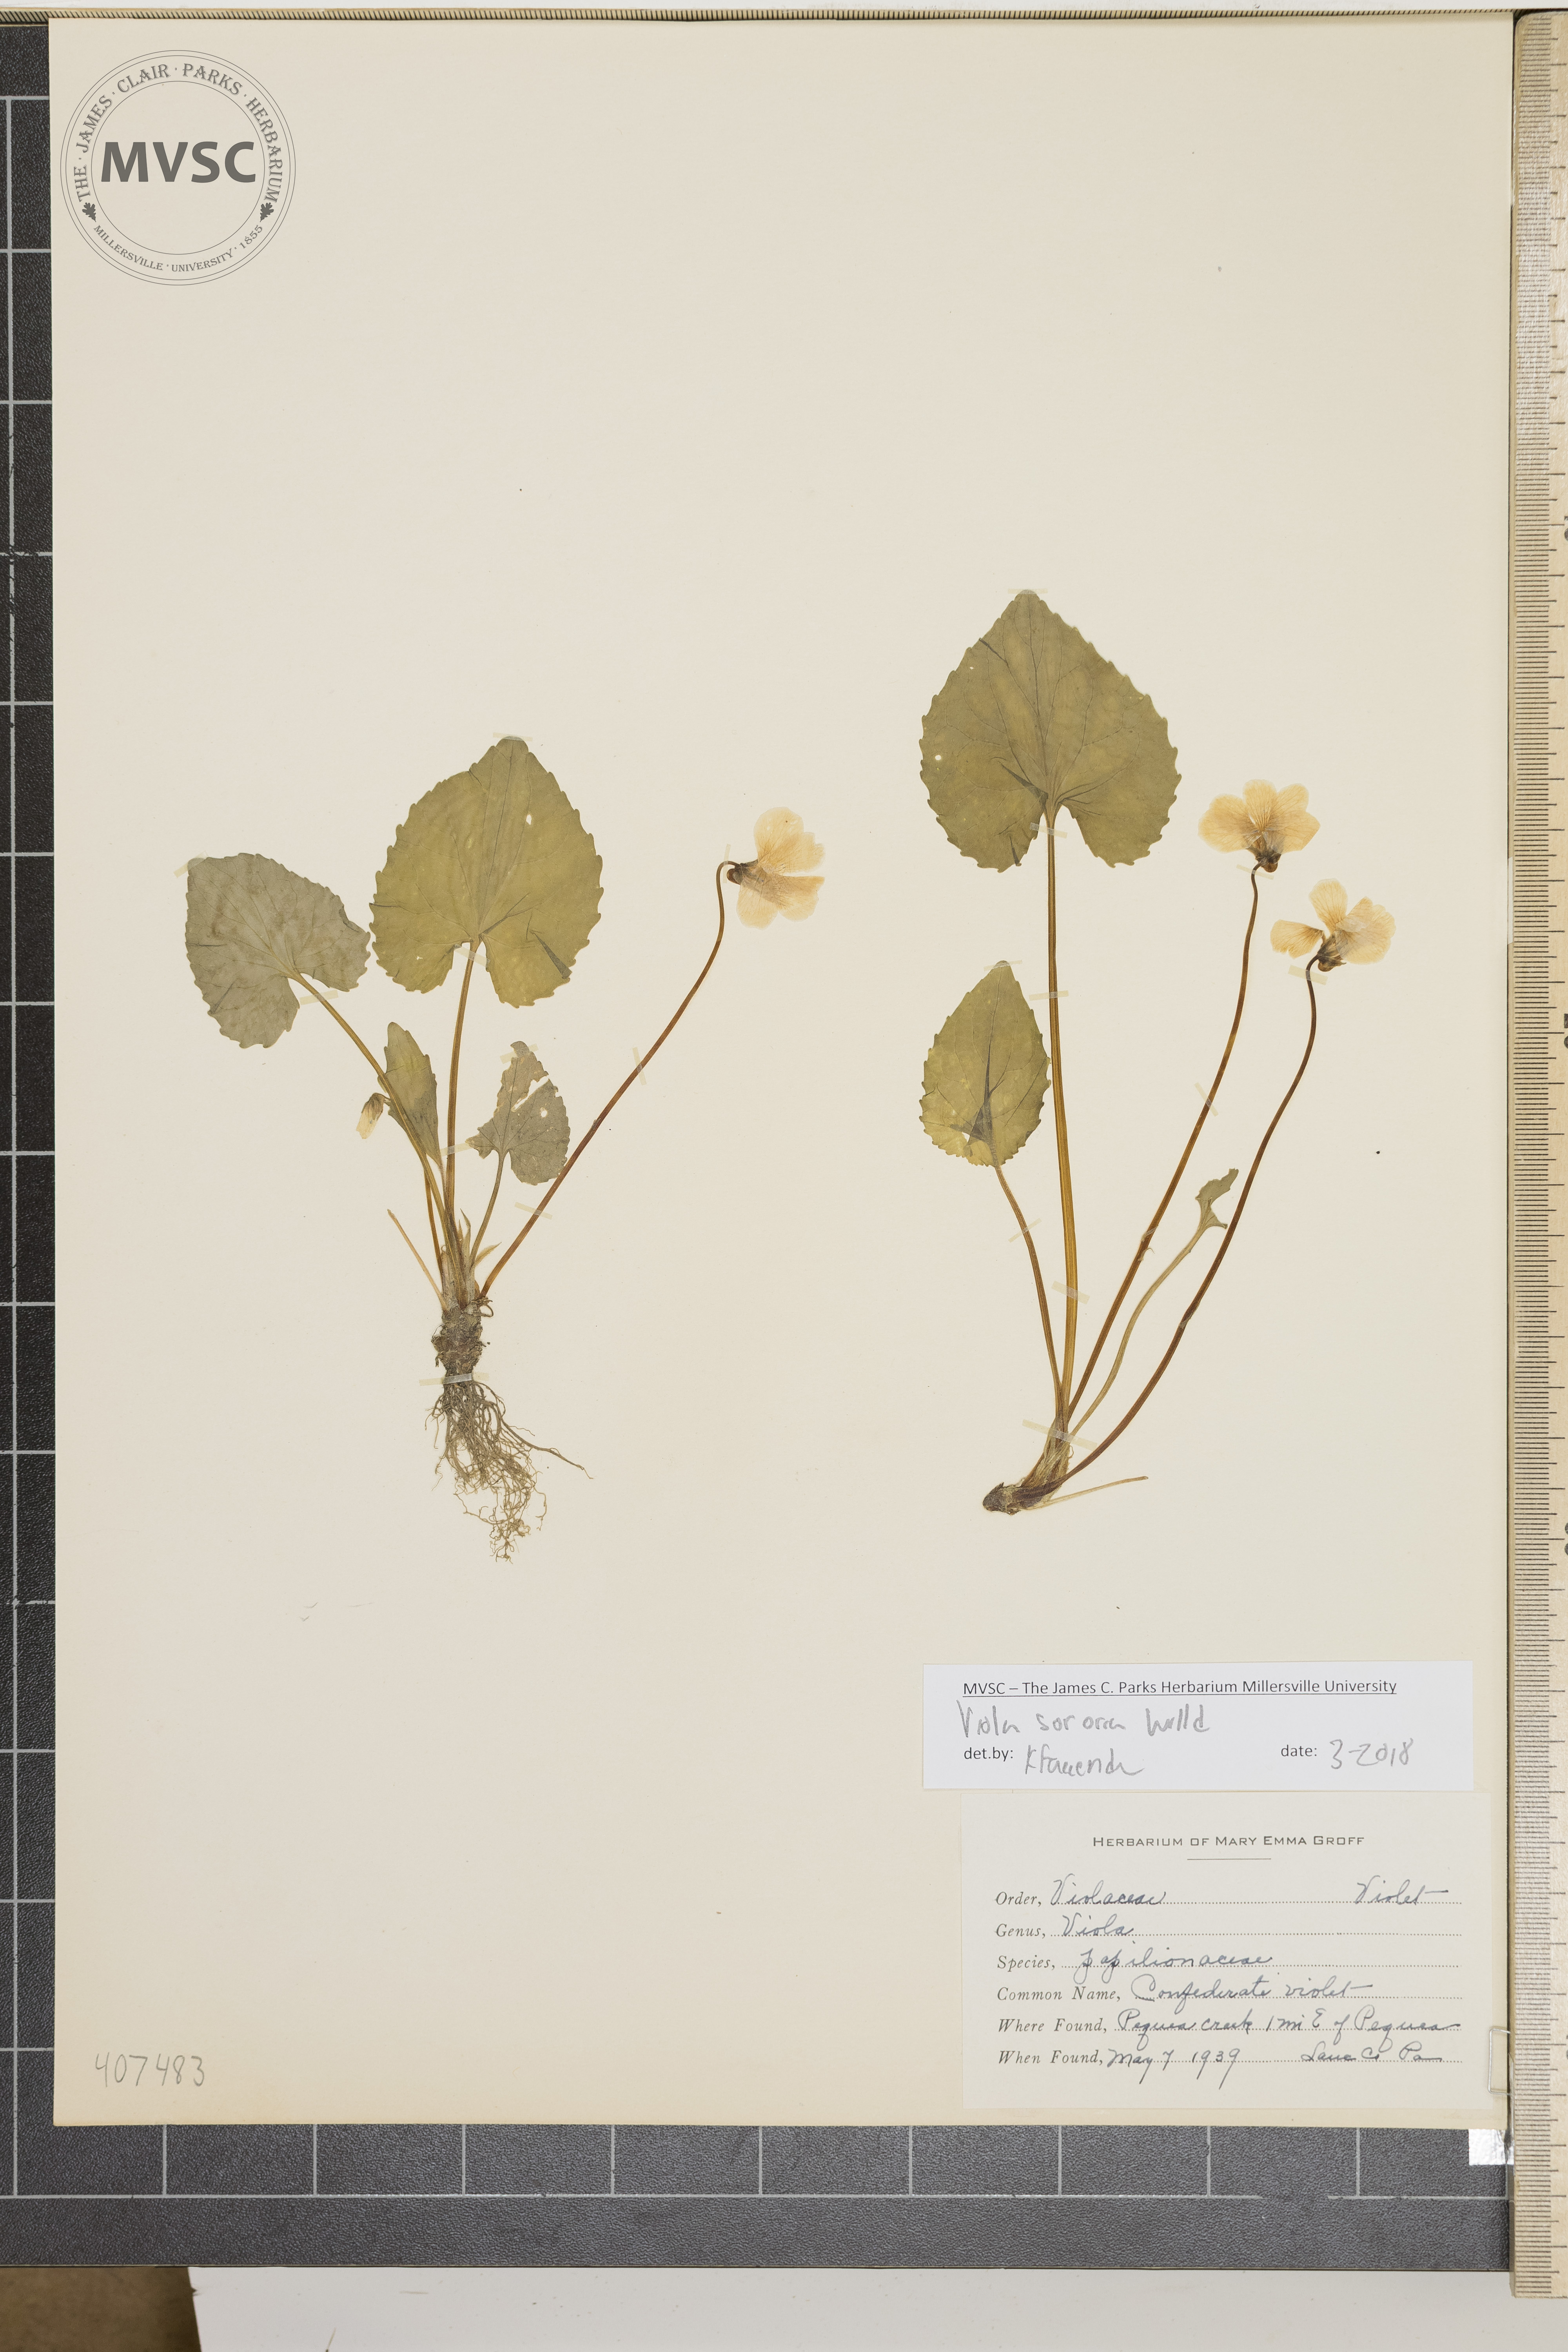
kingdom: Plantae
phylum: Tracheophyta
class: Magnoliopsida
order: Malpighiales
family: Violaceae
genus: Viola
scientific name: Viola sororia
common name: Confederate violet
